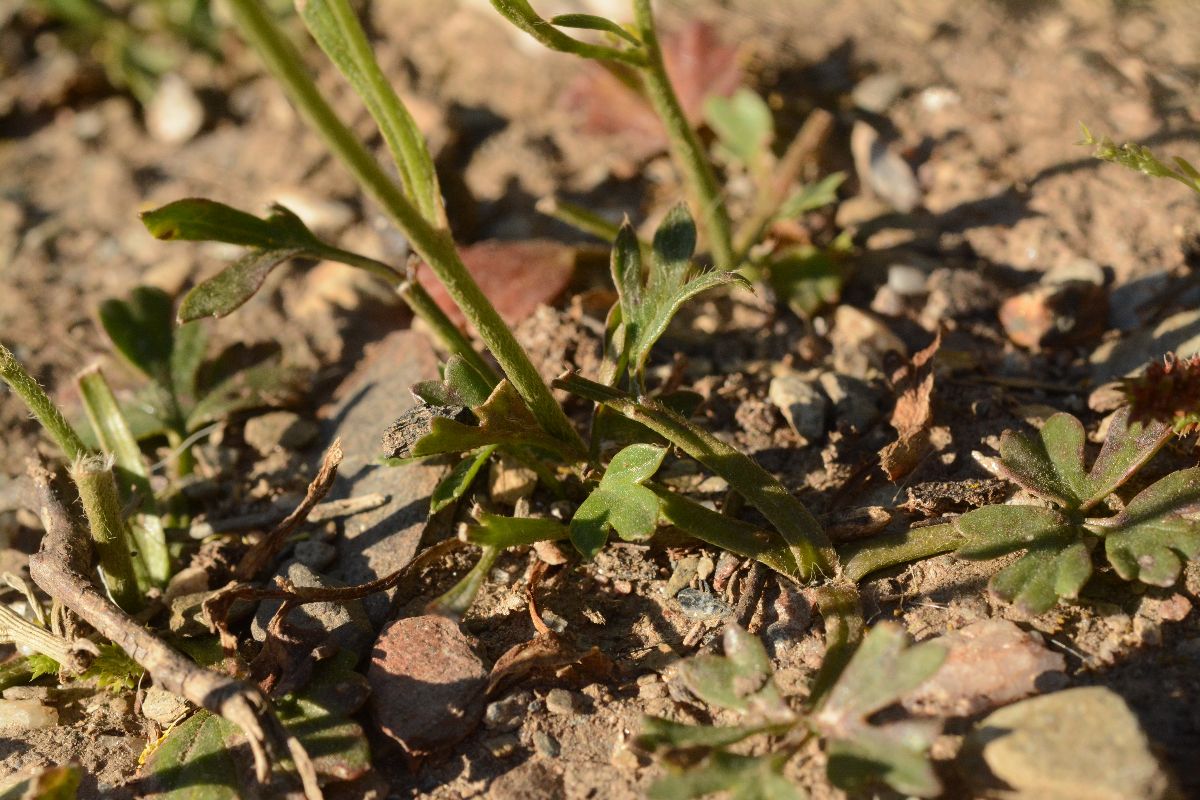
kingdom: Plantae
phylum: Tracheophyta
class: Magnoliopsida
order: Ranunculales
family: Ranunculaceae
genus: Ranunculus
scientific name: Ranunculus paludosus
